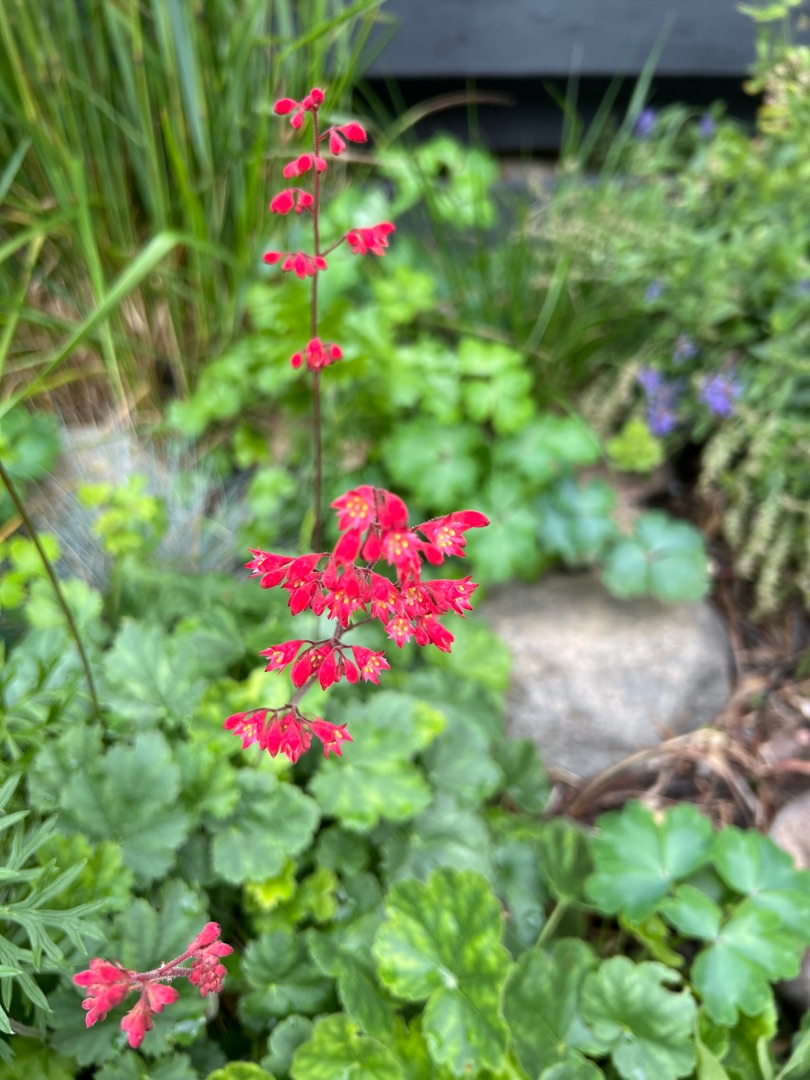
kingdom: Plantae
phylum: Tracheophyta
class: Magnoliopsida
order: Saxifragales
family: Saxifragaceae
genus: Heuchera
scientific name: Heuchera sanguinea
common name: Purpurklokke
